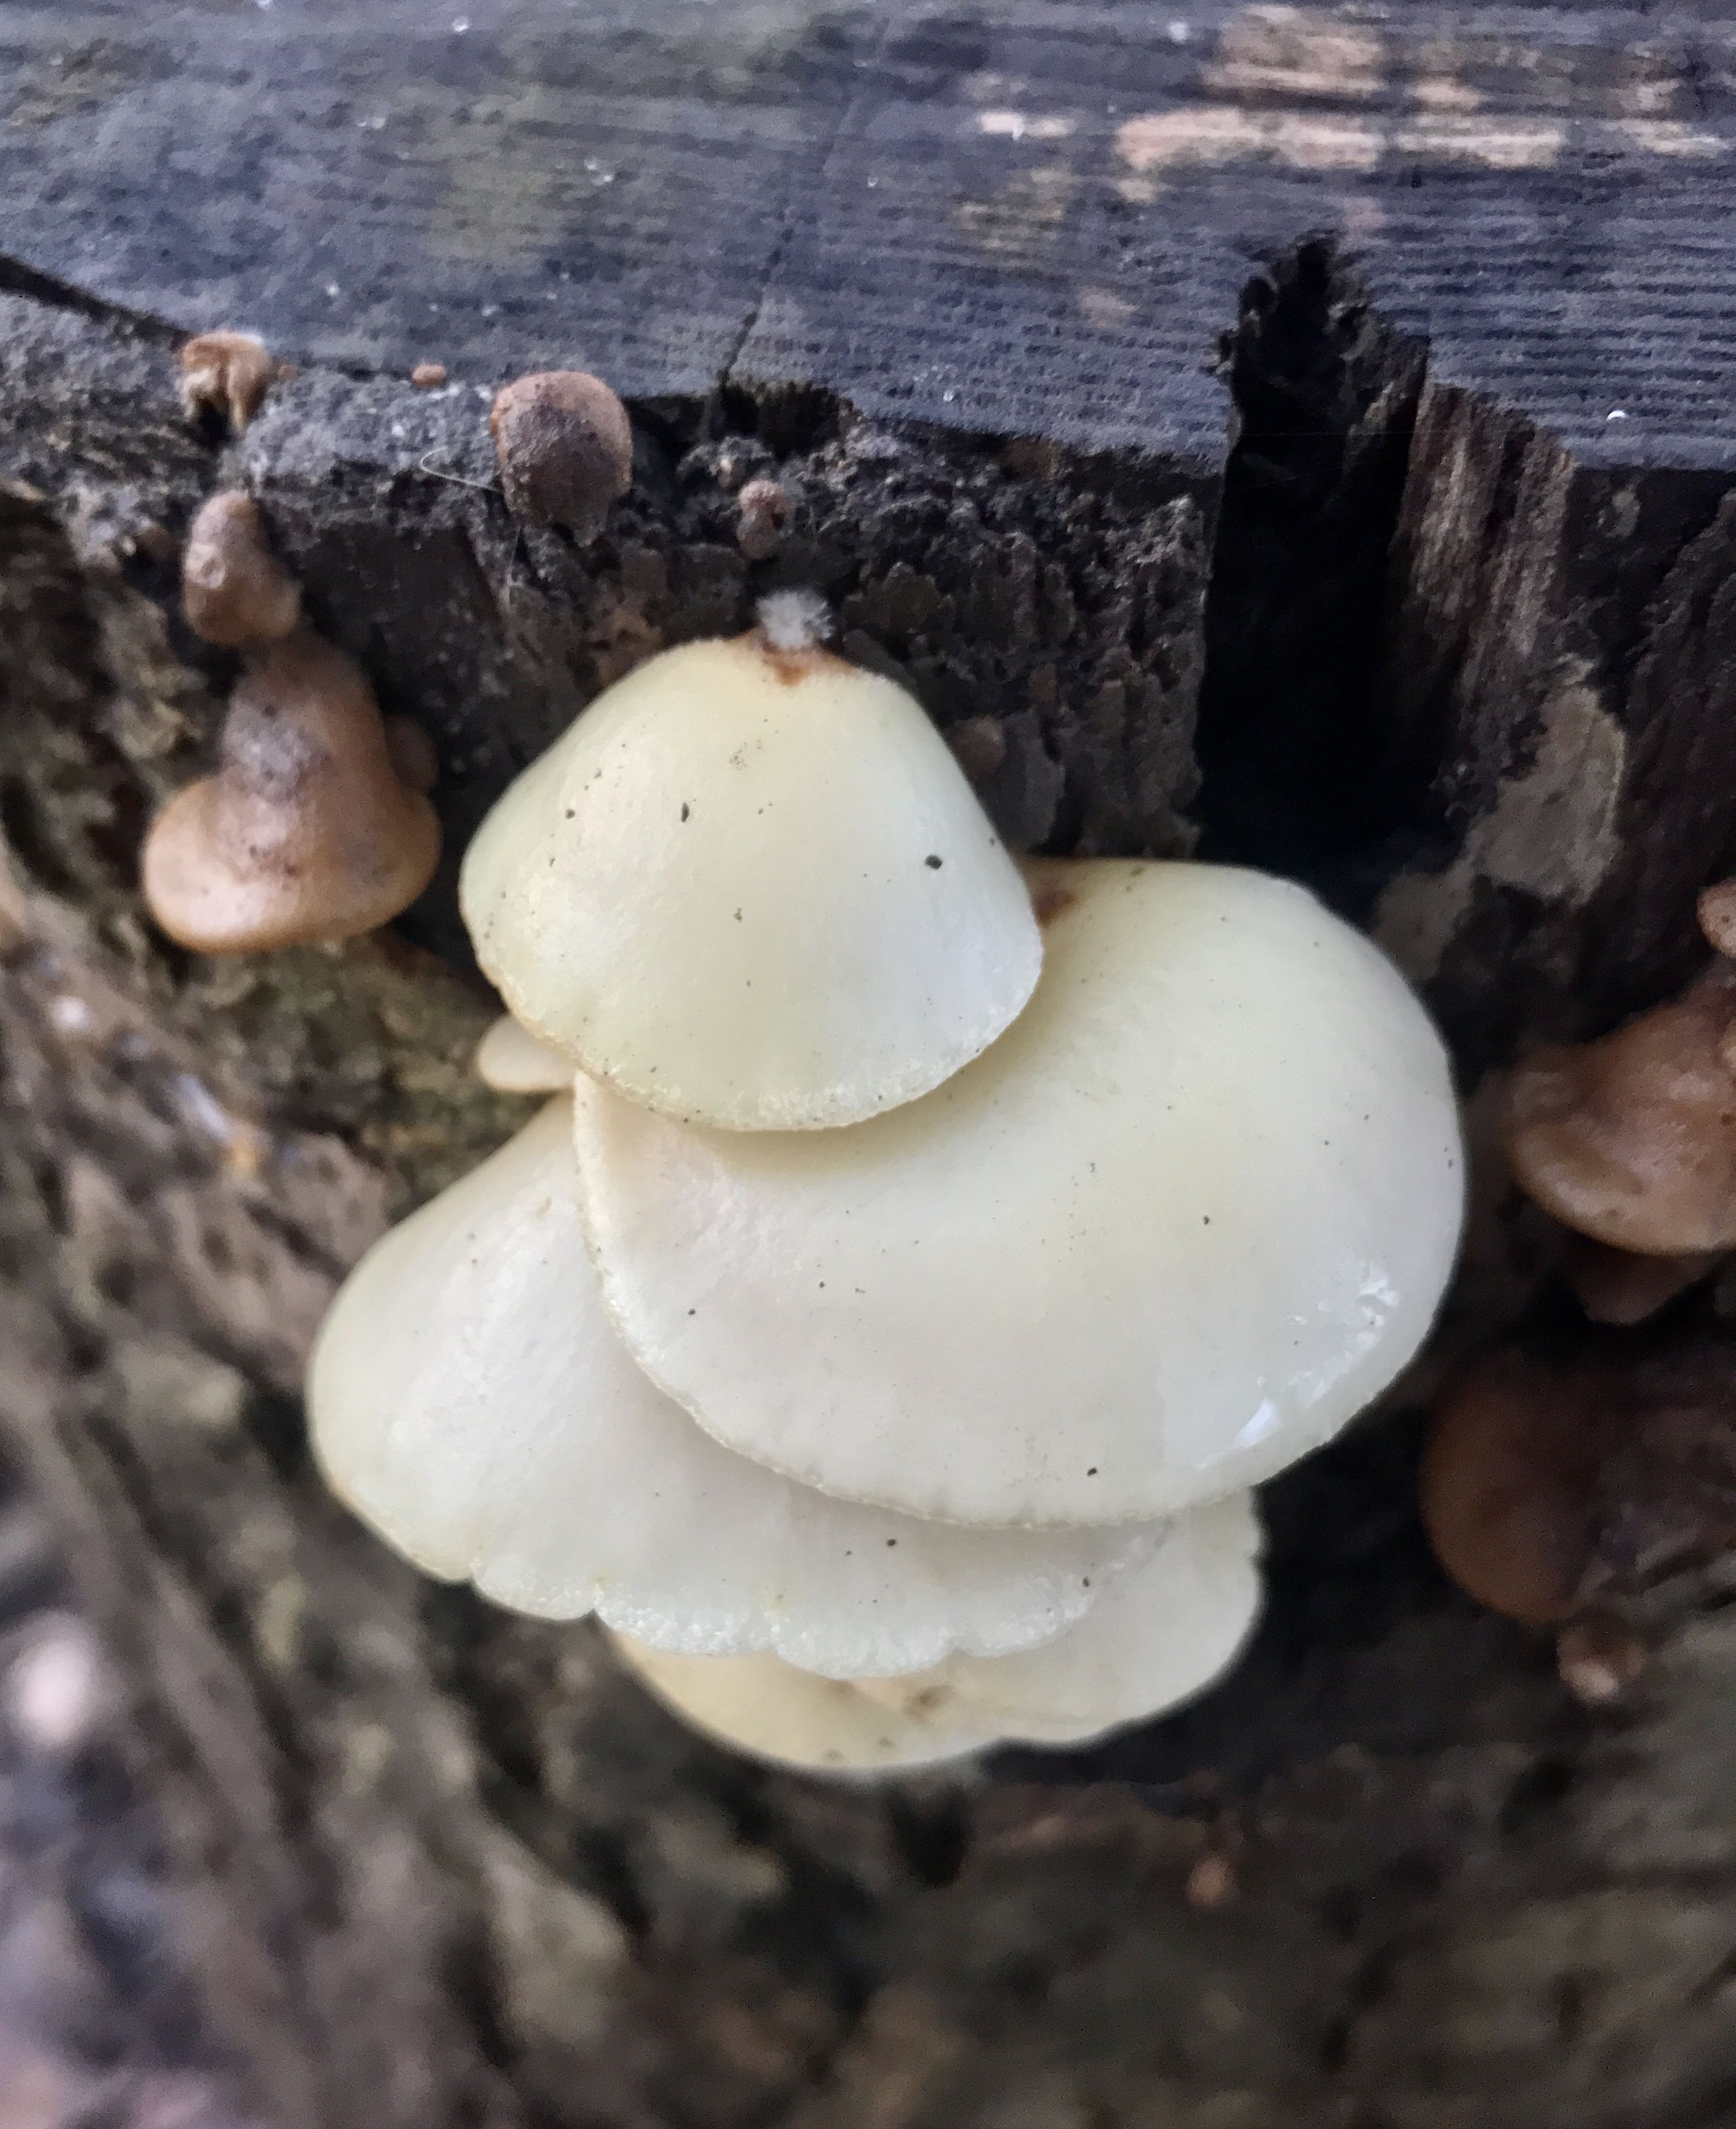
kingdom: Fungi
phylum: Basidiomycota
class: Agaricomycetes
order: Agaricales
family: Crepidotaceae
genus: Crepidotus
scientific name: Crepidotus mollis
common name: blød muslingesvamp
